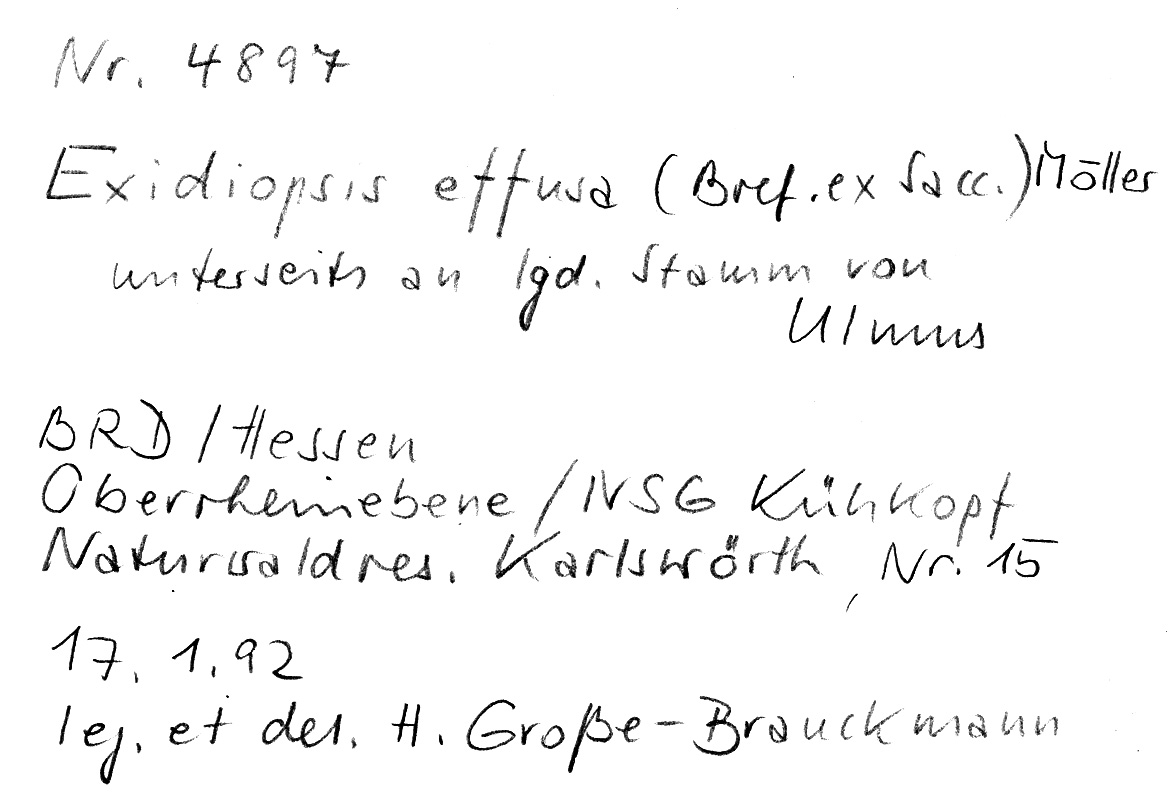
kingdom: Plantae
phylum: Tracheophyta
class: Magnoliopsida
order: Rosales
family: Ulmaceae
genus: Ulmus
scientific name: Ulmus
